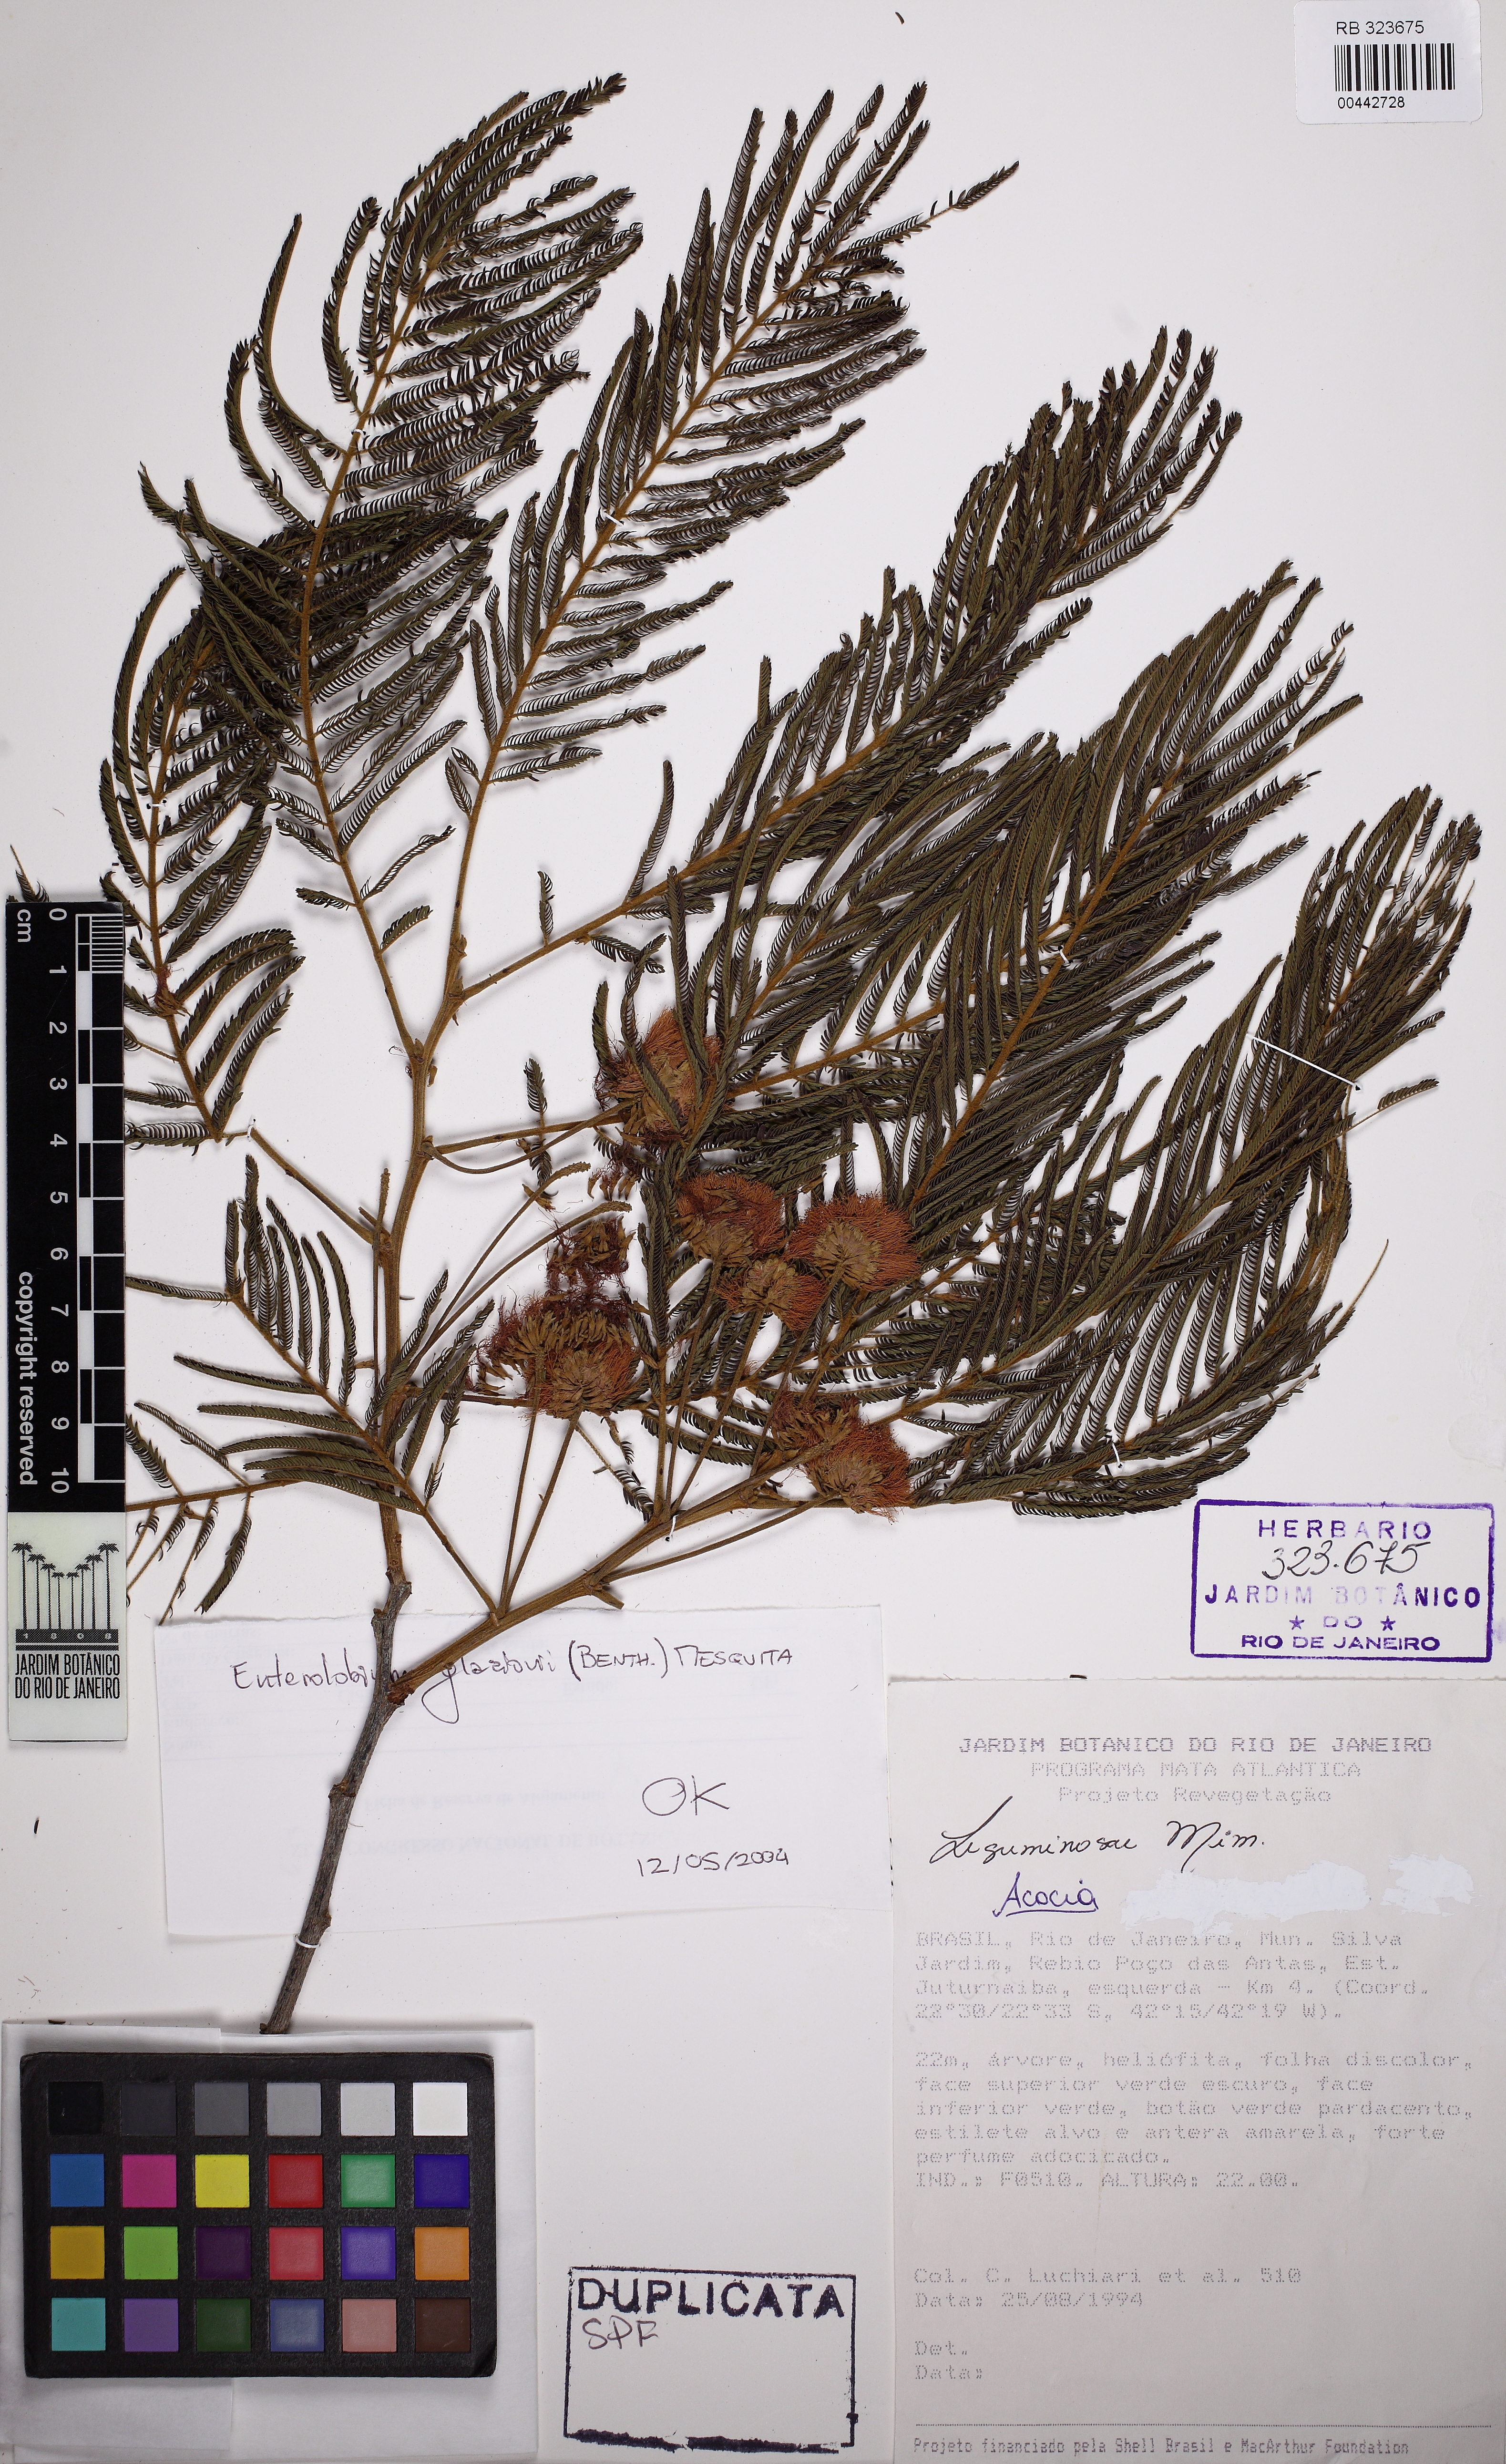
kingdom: Plantae
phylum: Tracheophyta
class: Magnoliopsida
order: Fabales
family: Fabaceae
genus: Enterolobium
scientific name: Enterolobium glaziovii
